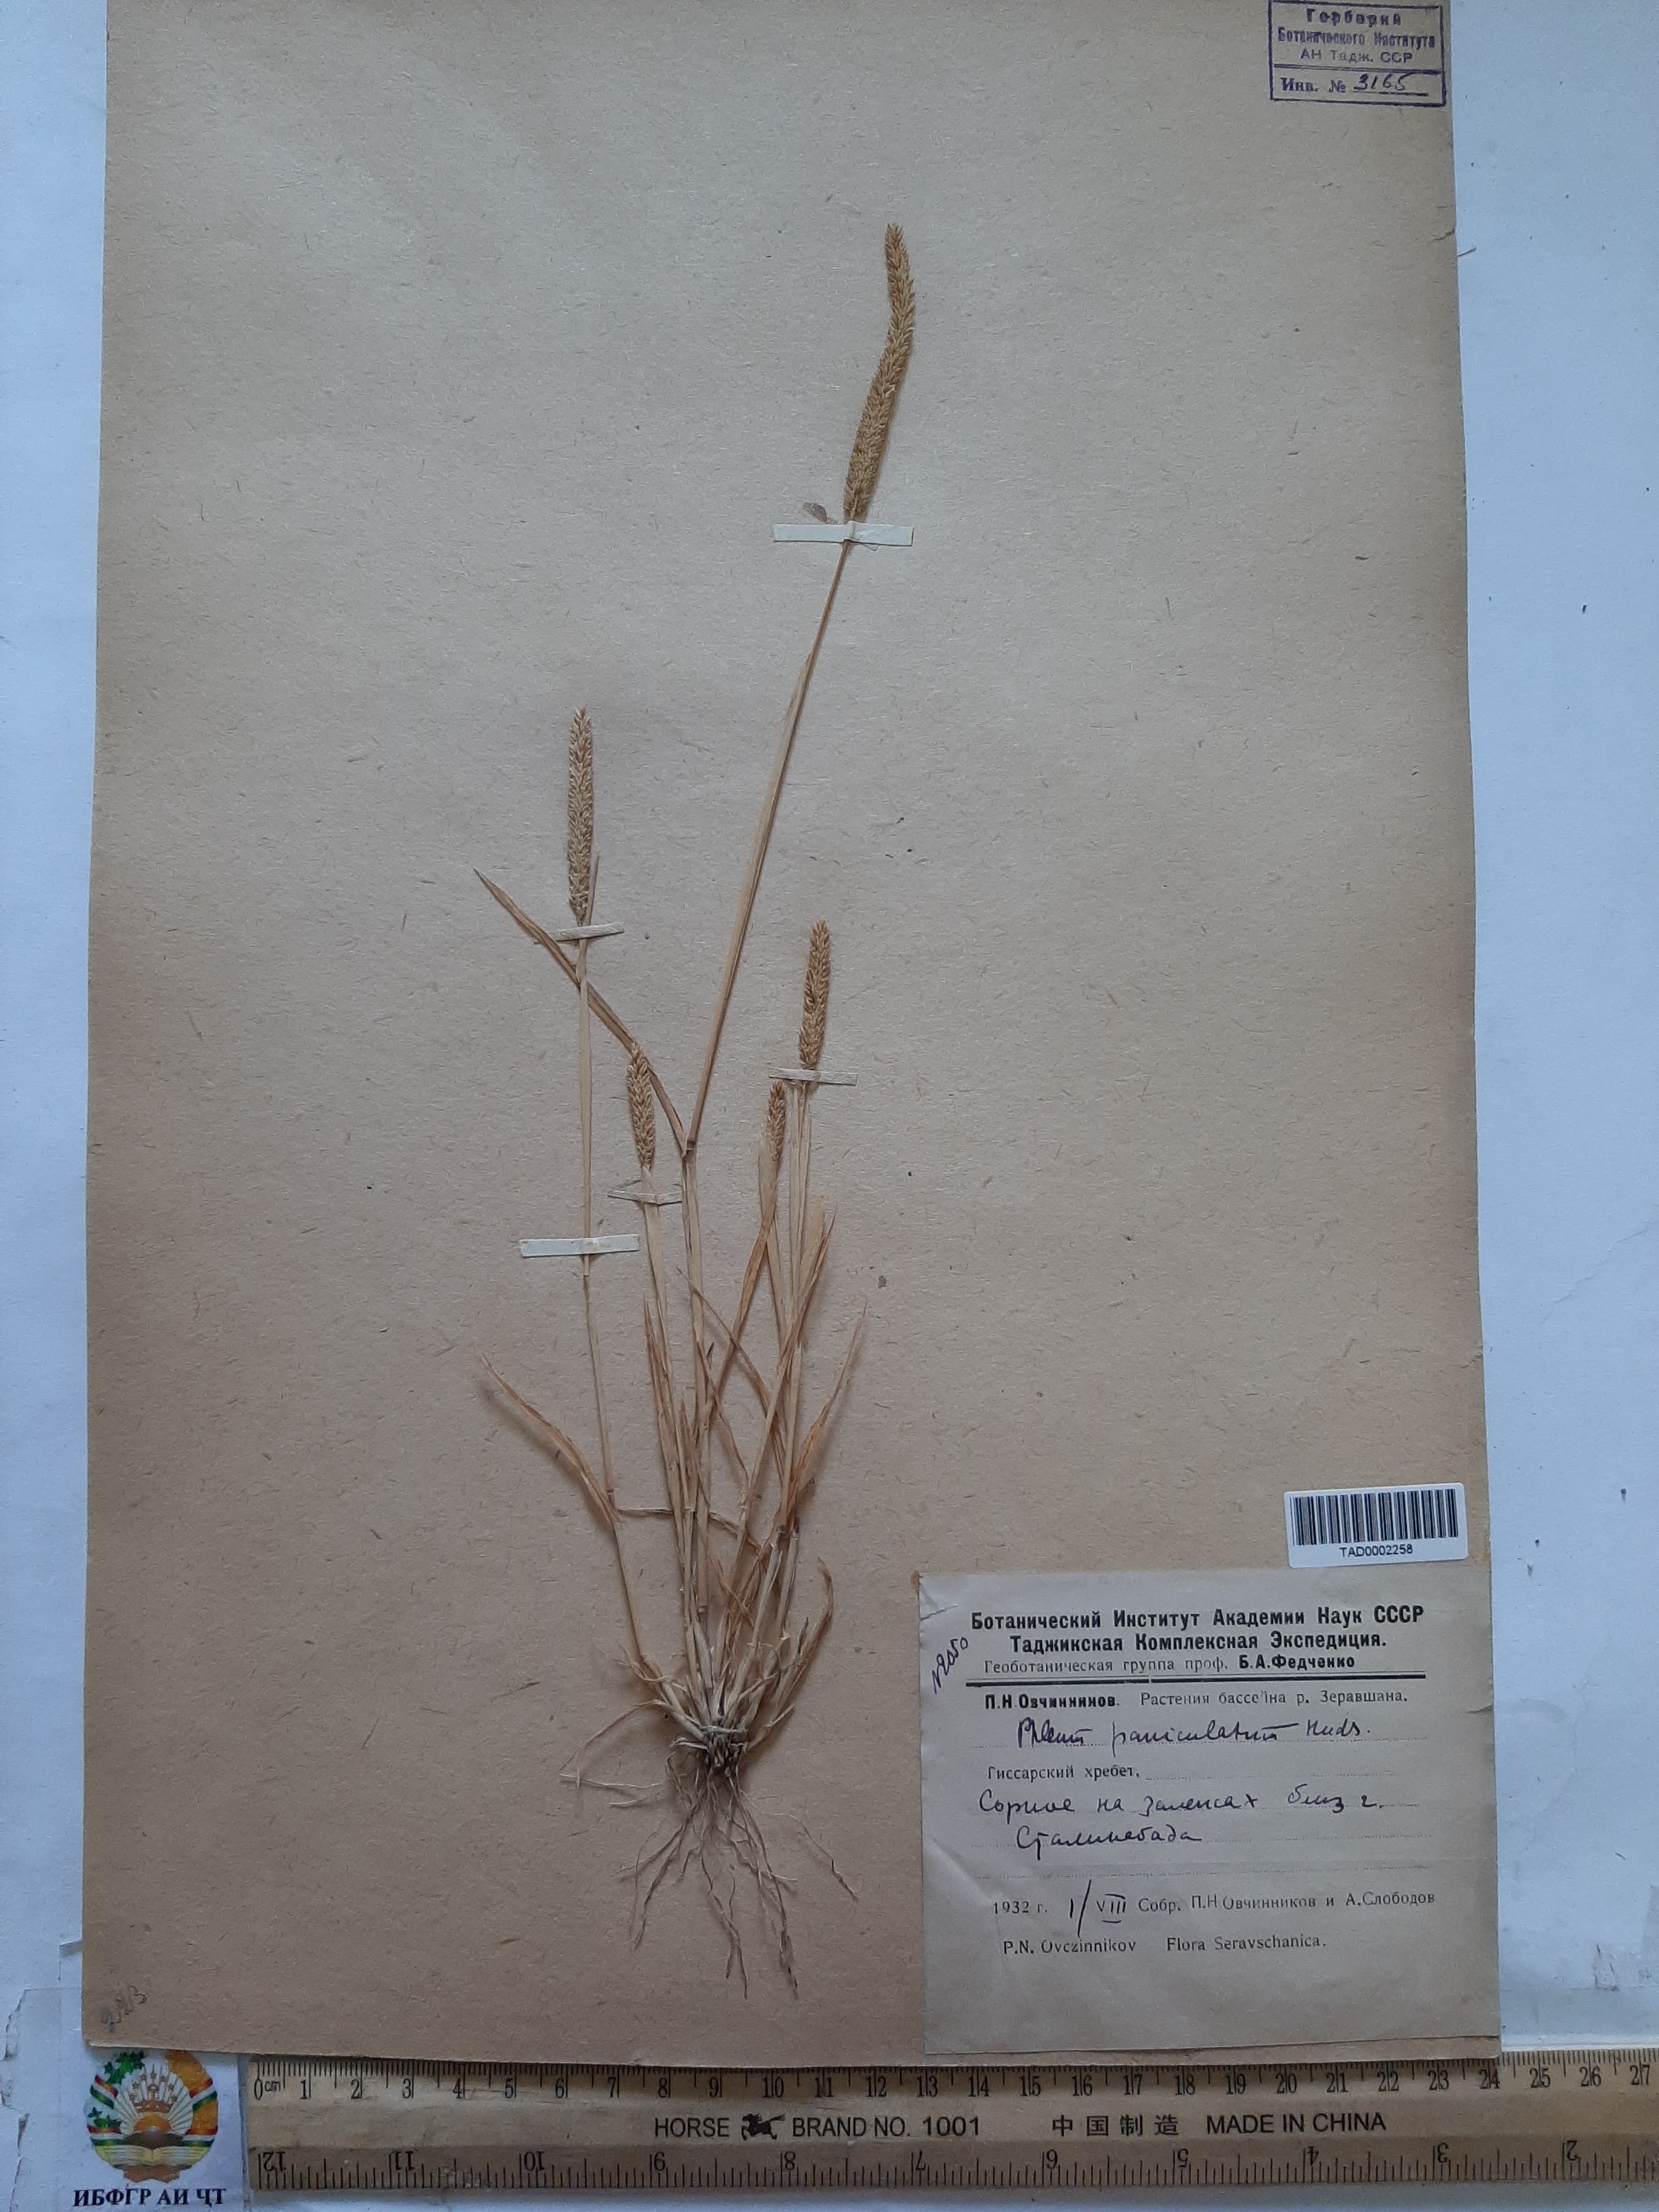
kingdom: Plantae
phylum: Tracheophyta
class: Liliopsida
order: Poales
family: Poaceae
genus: Phleum
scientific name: Phleum paniculatum
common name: British timothy
